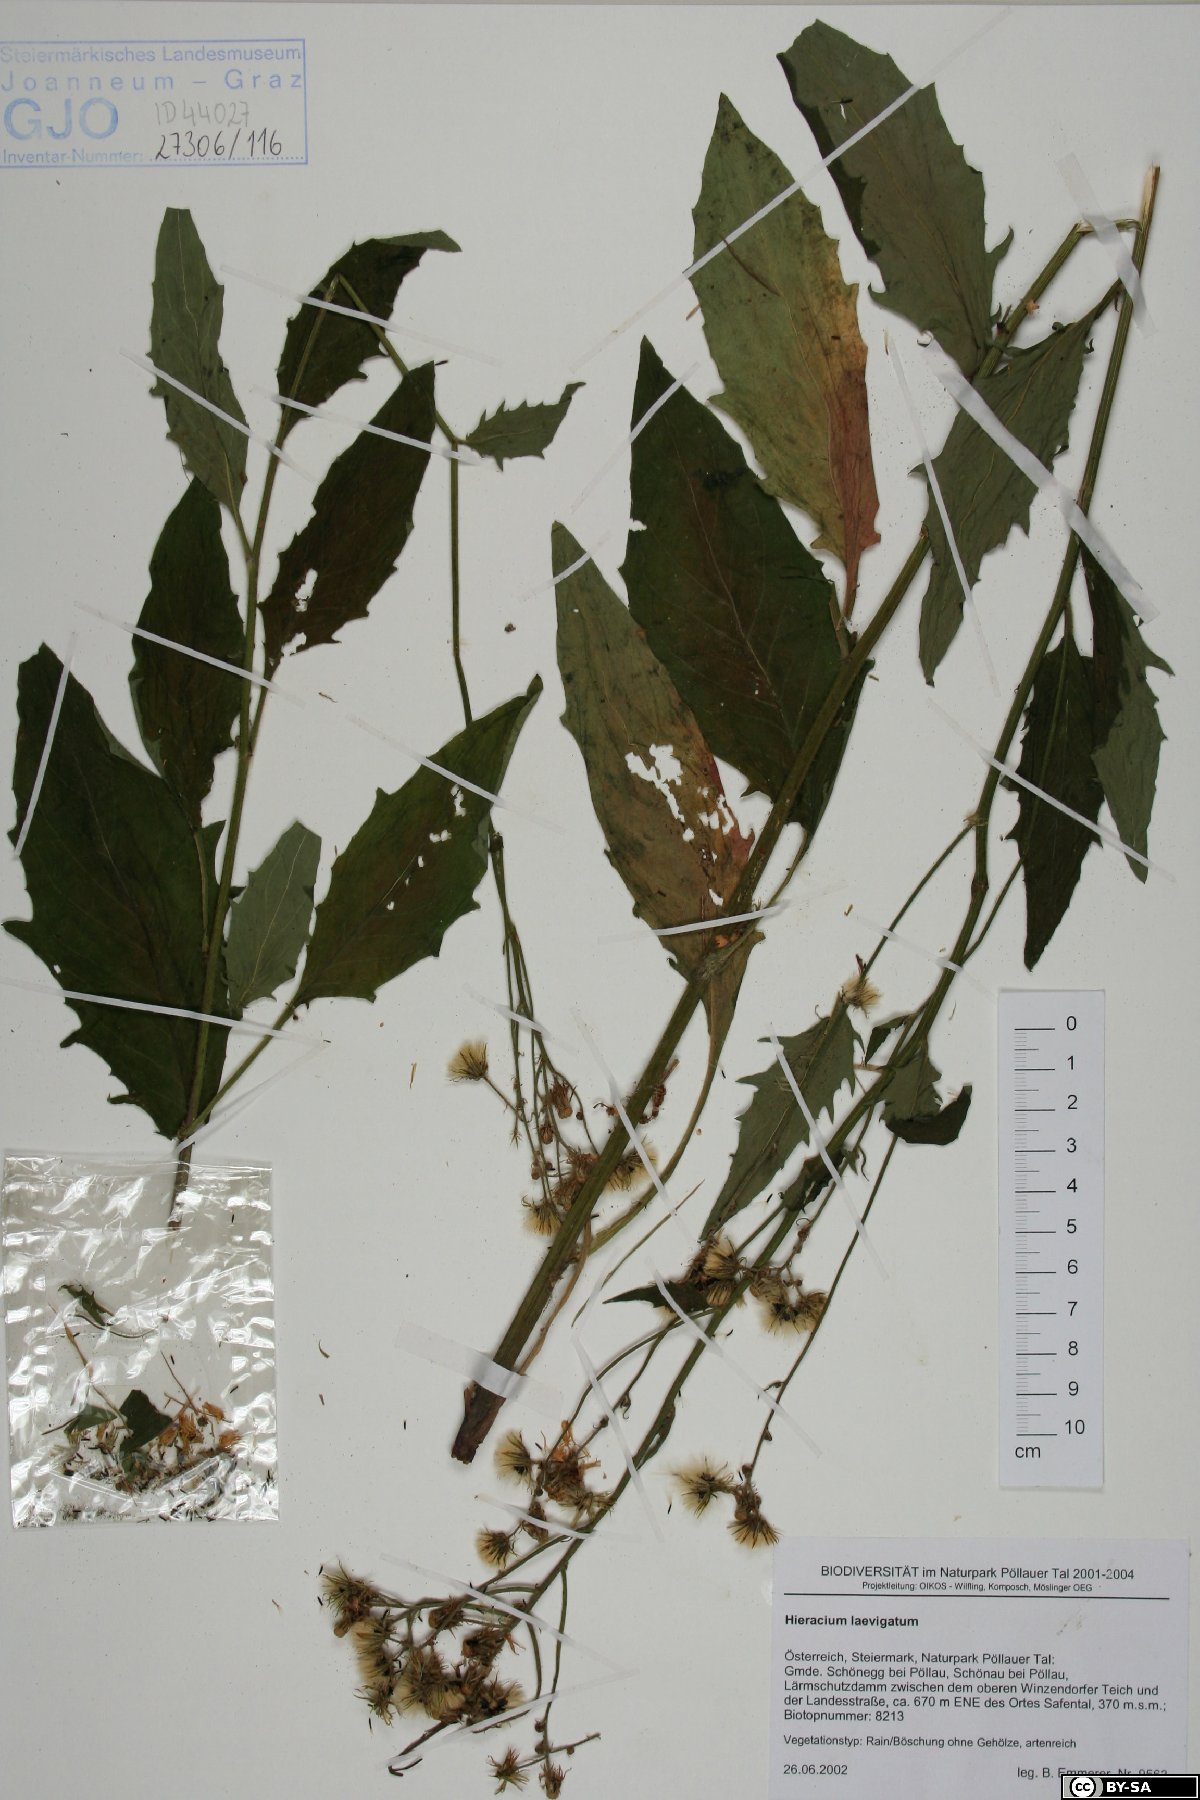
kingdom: Plantae
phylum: Tracheophyta
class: Magnoliopsida
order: Asterales
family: Asteraceae
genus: Hieracium
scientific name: Hieracium laevigatum
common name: Smooth hawkweed
